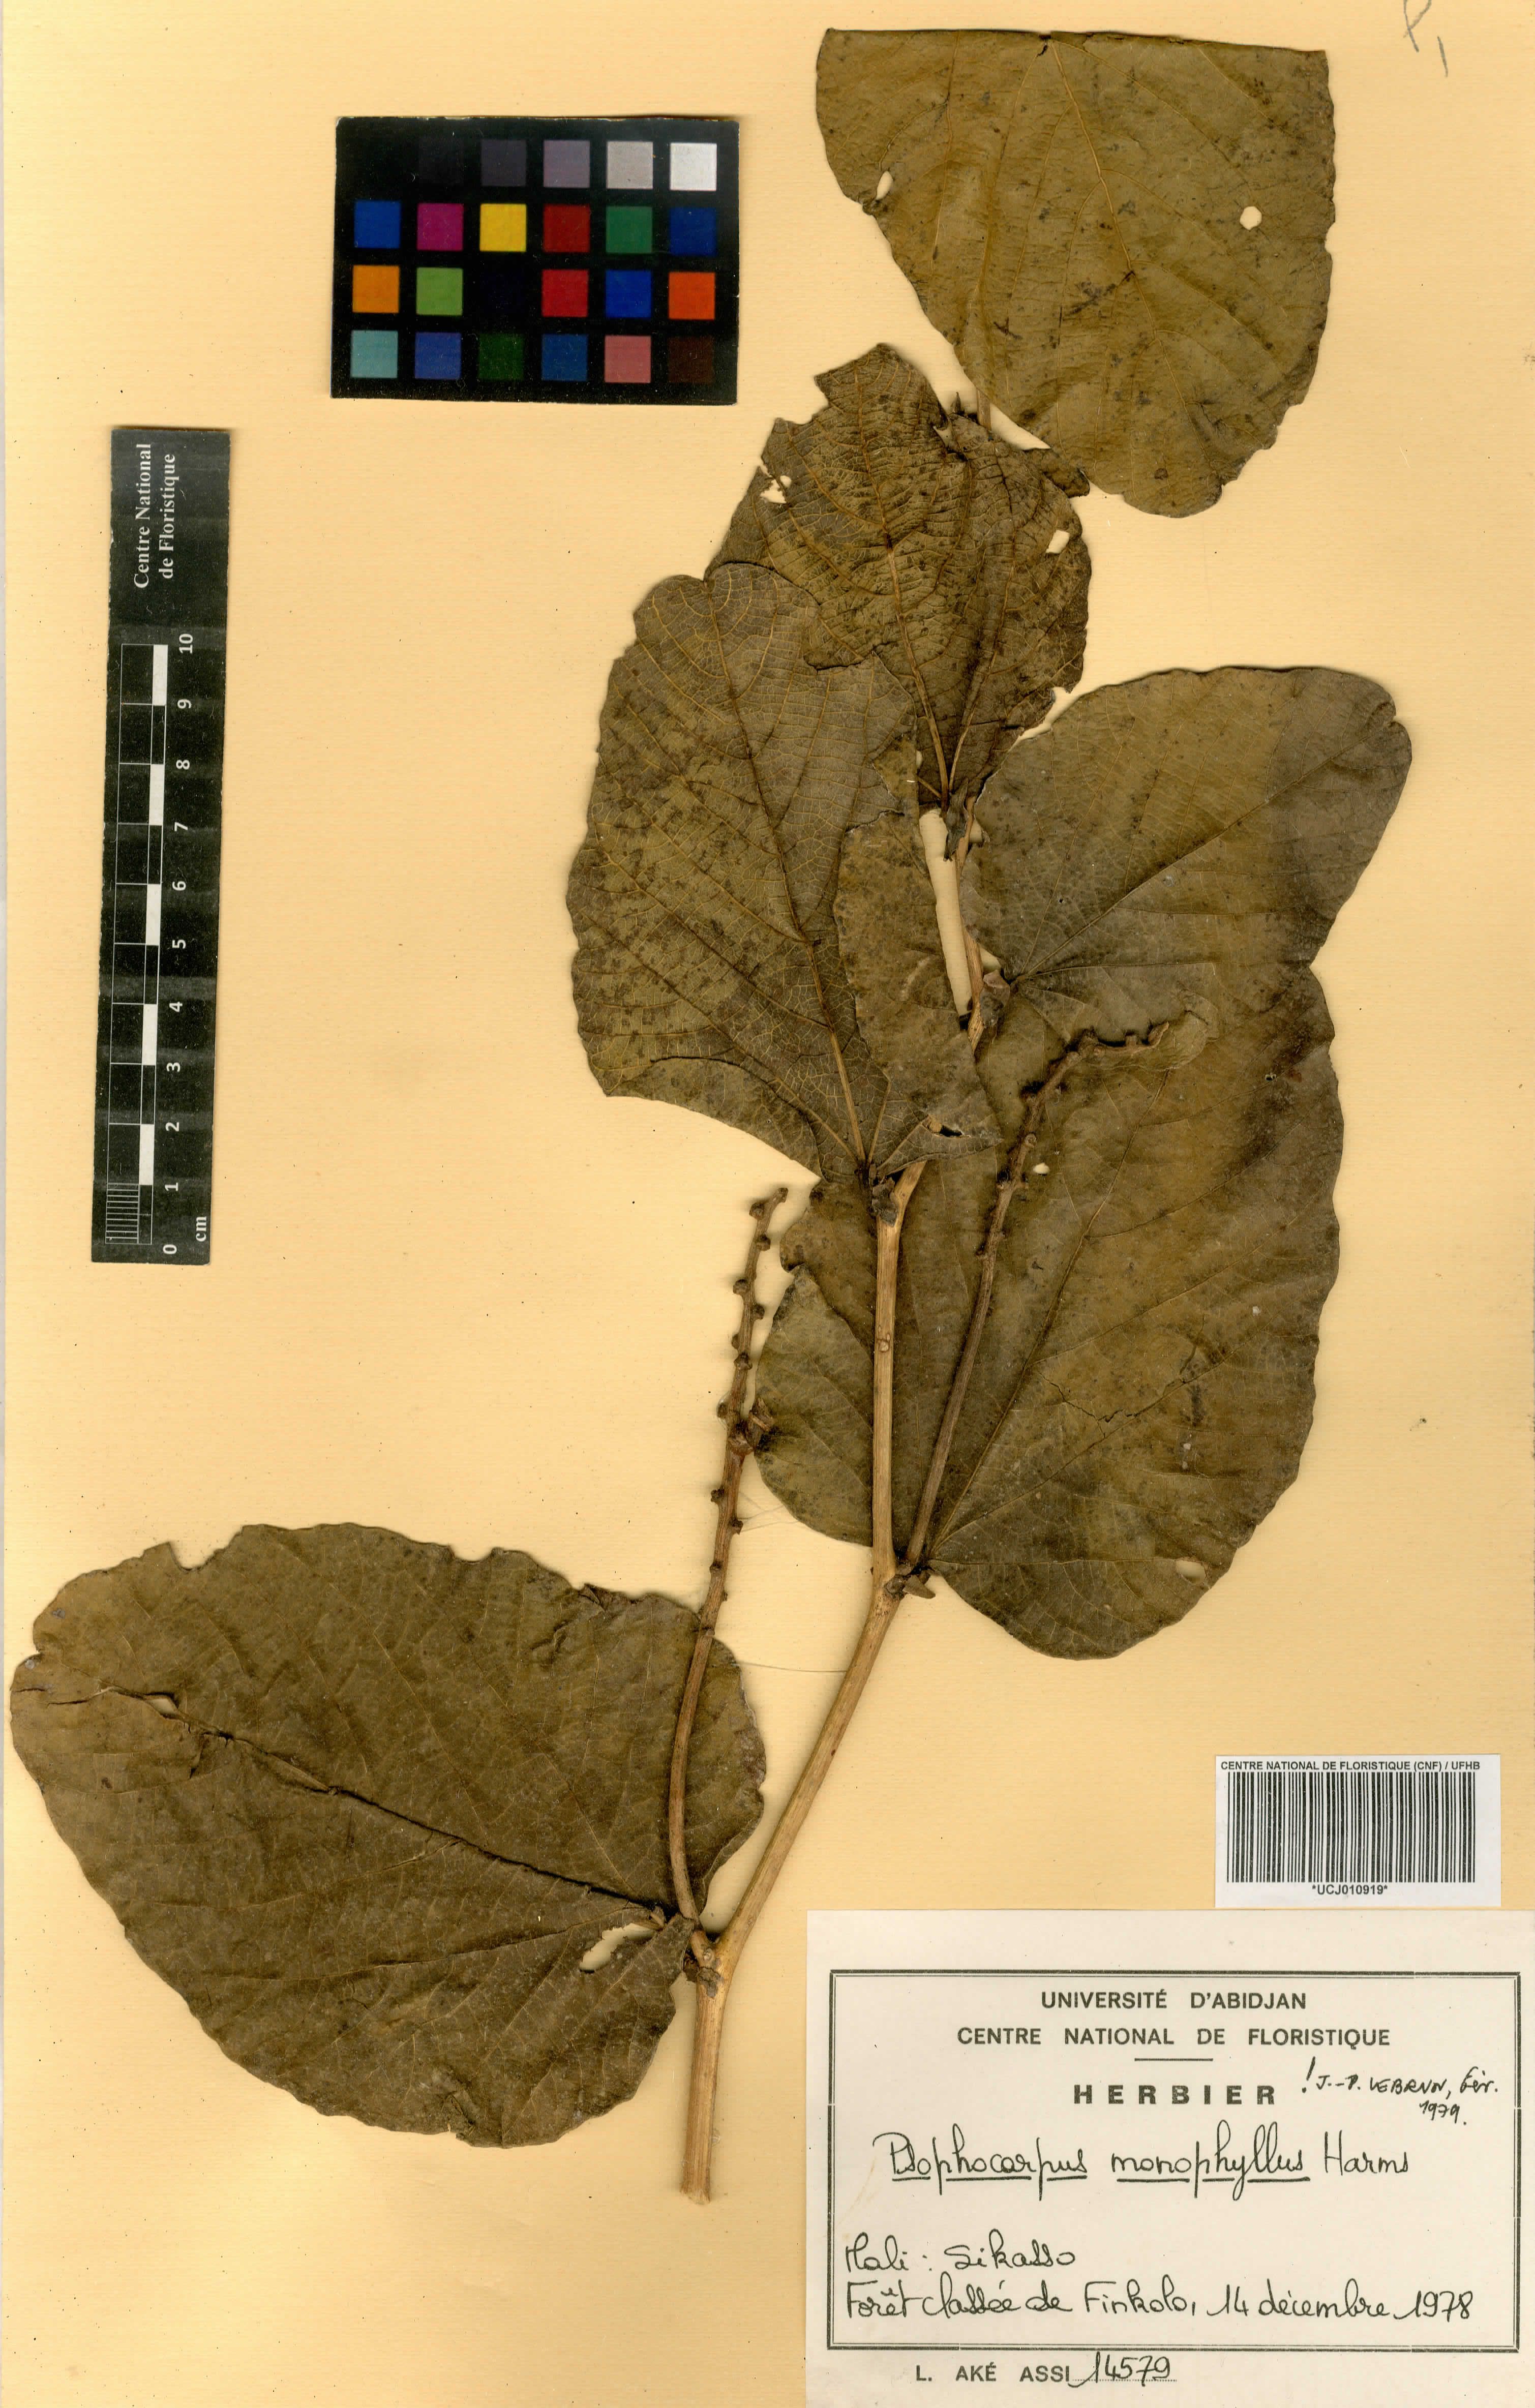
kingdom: Plantae
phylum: Tracheophyta
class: Magnoliopsida
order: Fabales
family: Fabaceae
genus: Psophocarpus
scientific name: Psophocarpus monophyllus
